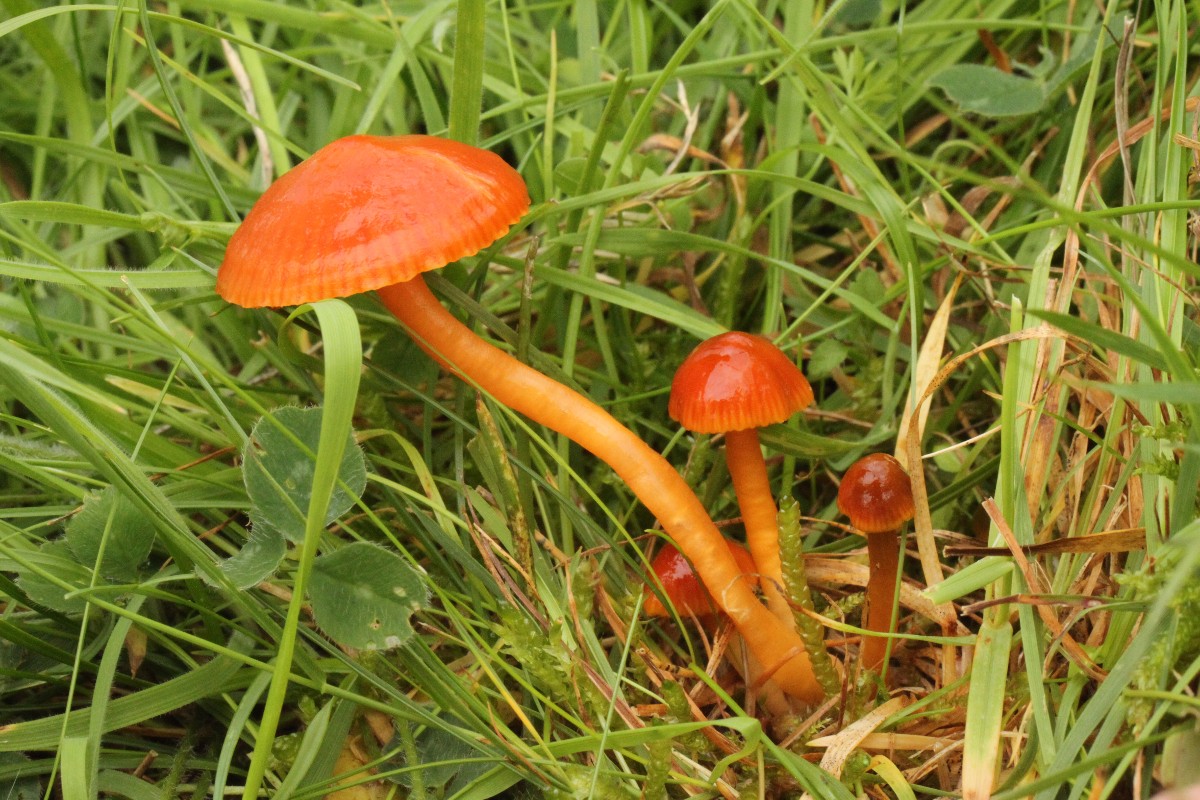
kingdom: Fungi
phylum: Basidiomycota
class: Agaricomycetes
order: Agaricales
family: Hygrophoraceae
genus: Gliophorus
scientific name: Gliophorus europerplexus
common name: Butterscotch waxcap
